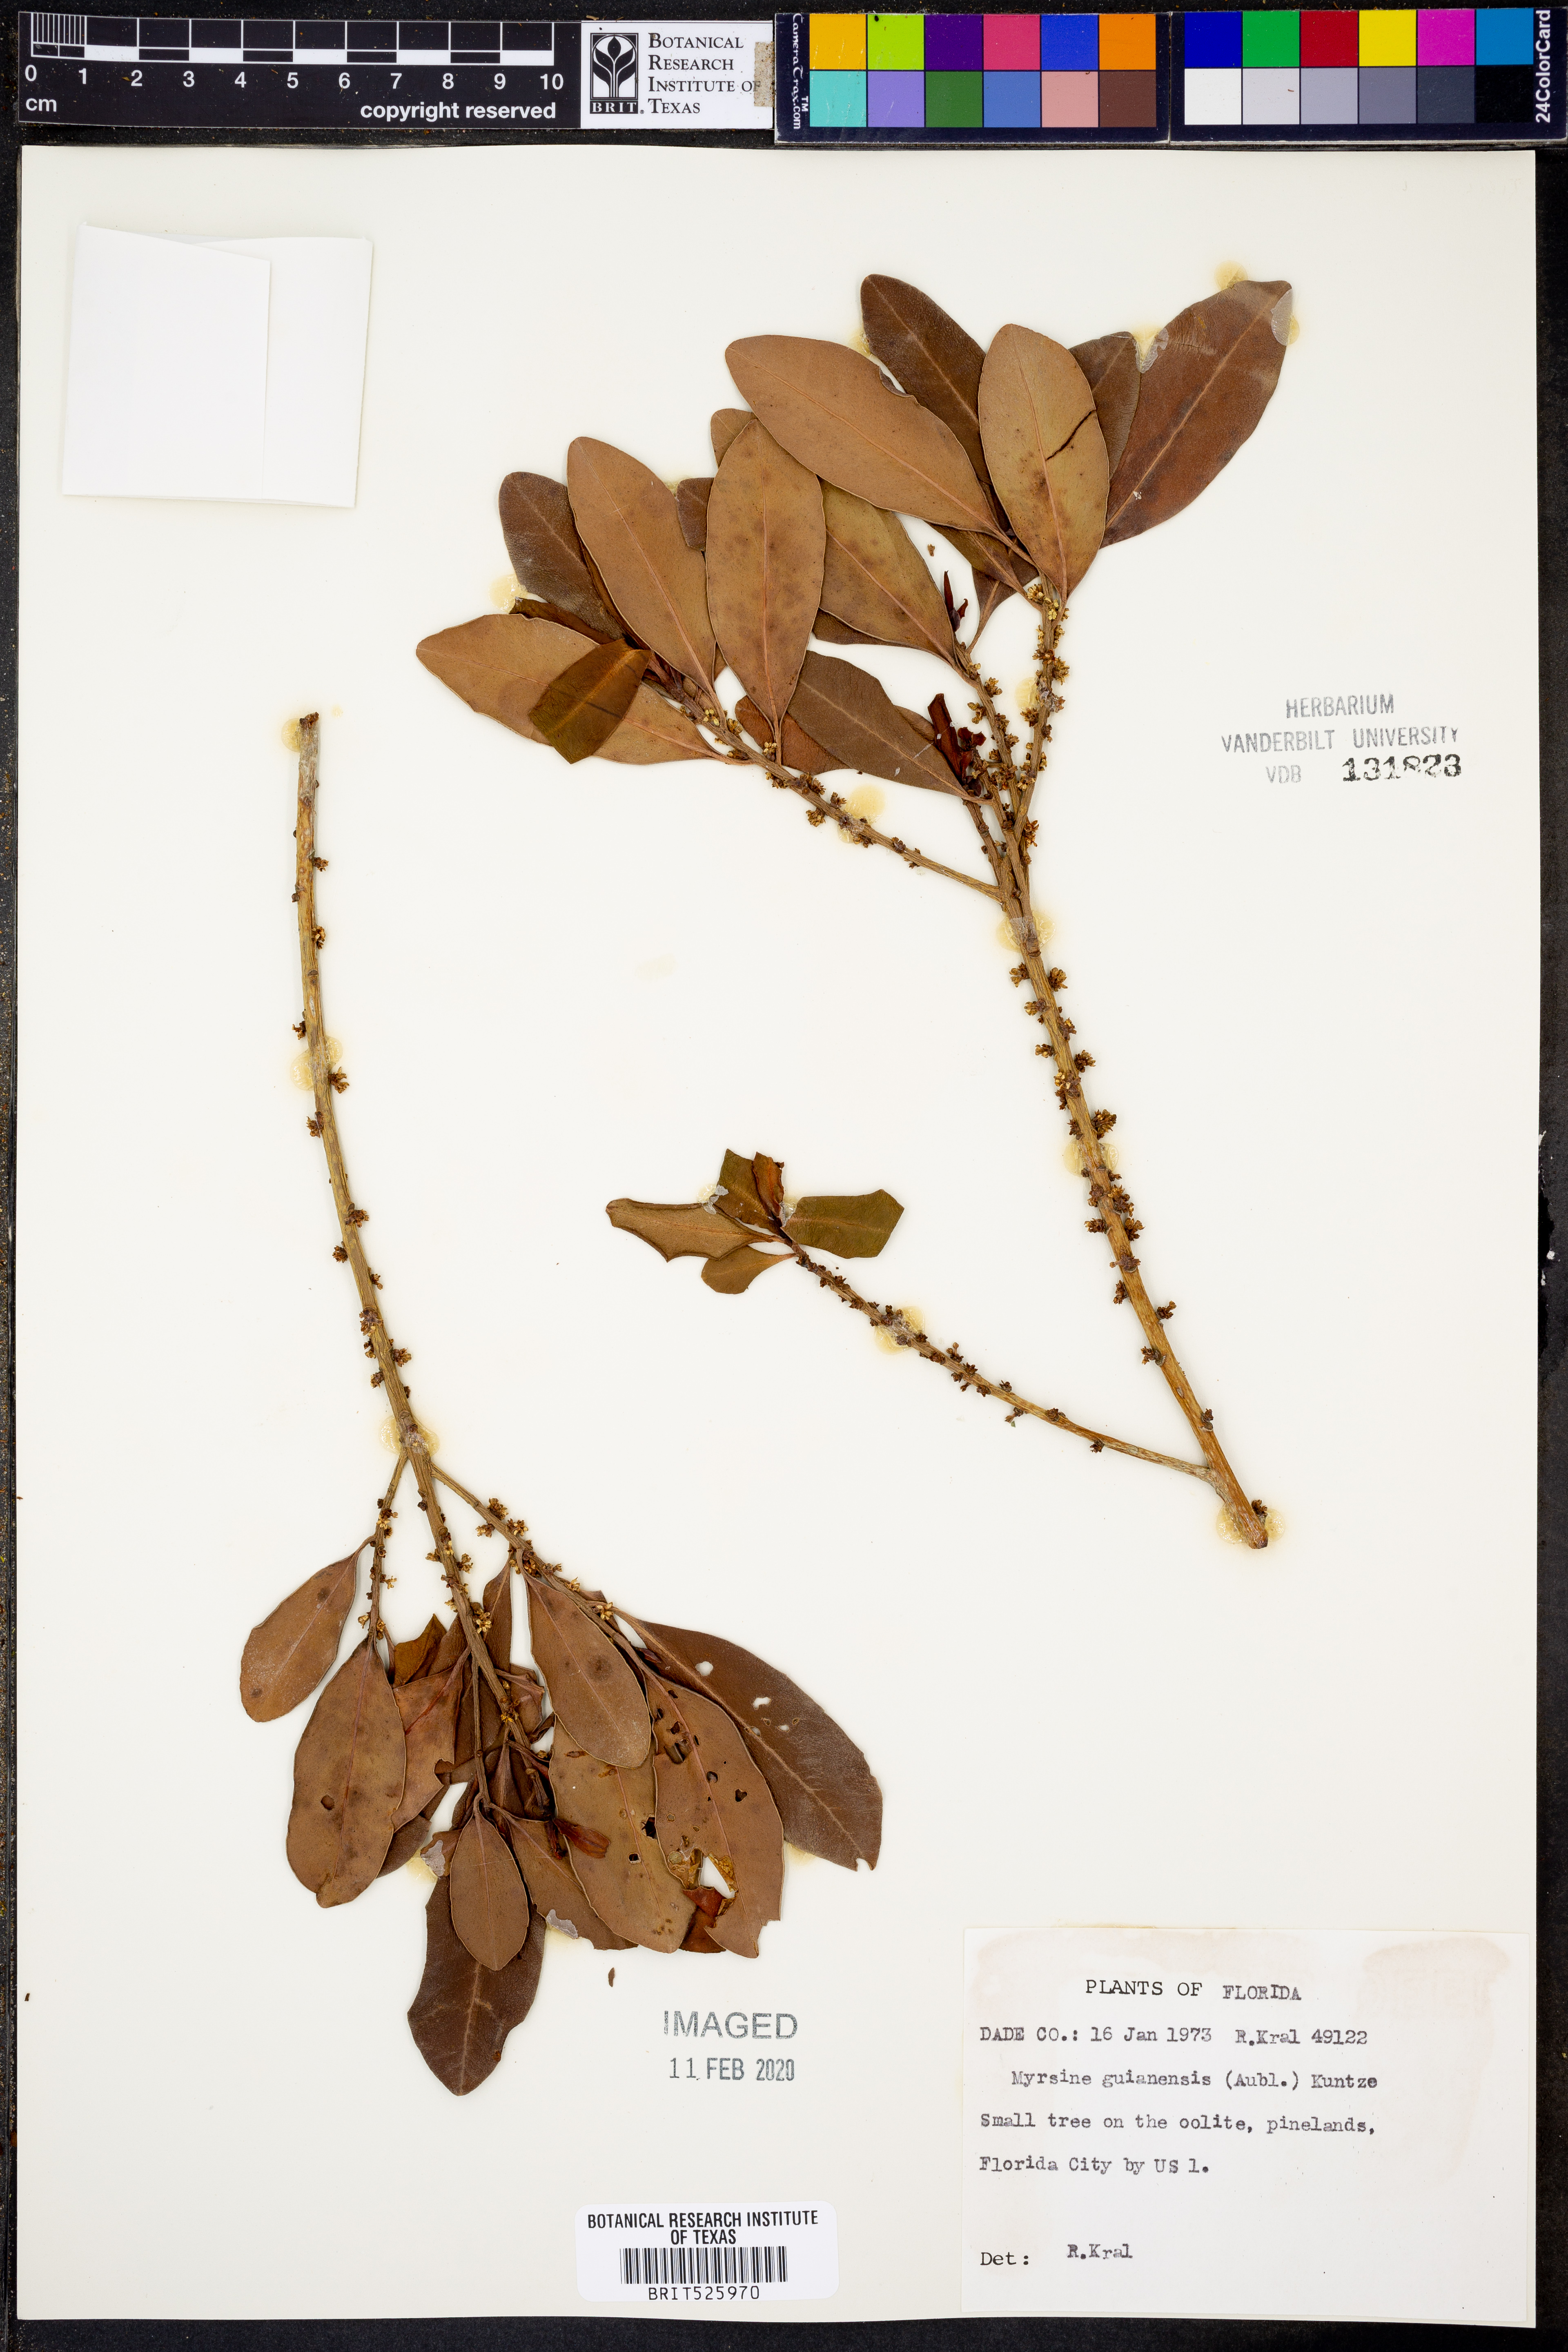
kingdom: Plantae
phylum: Tracheophyta
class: Magnoliopsida
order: Ericales
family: Primulaceae
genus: Myrsine
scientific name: Myrsine guianensis
